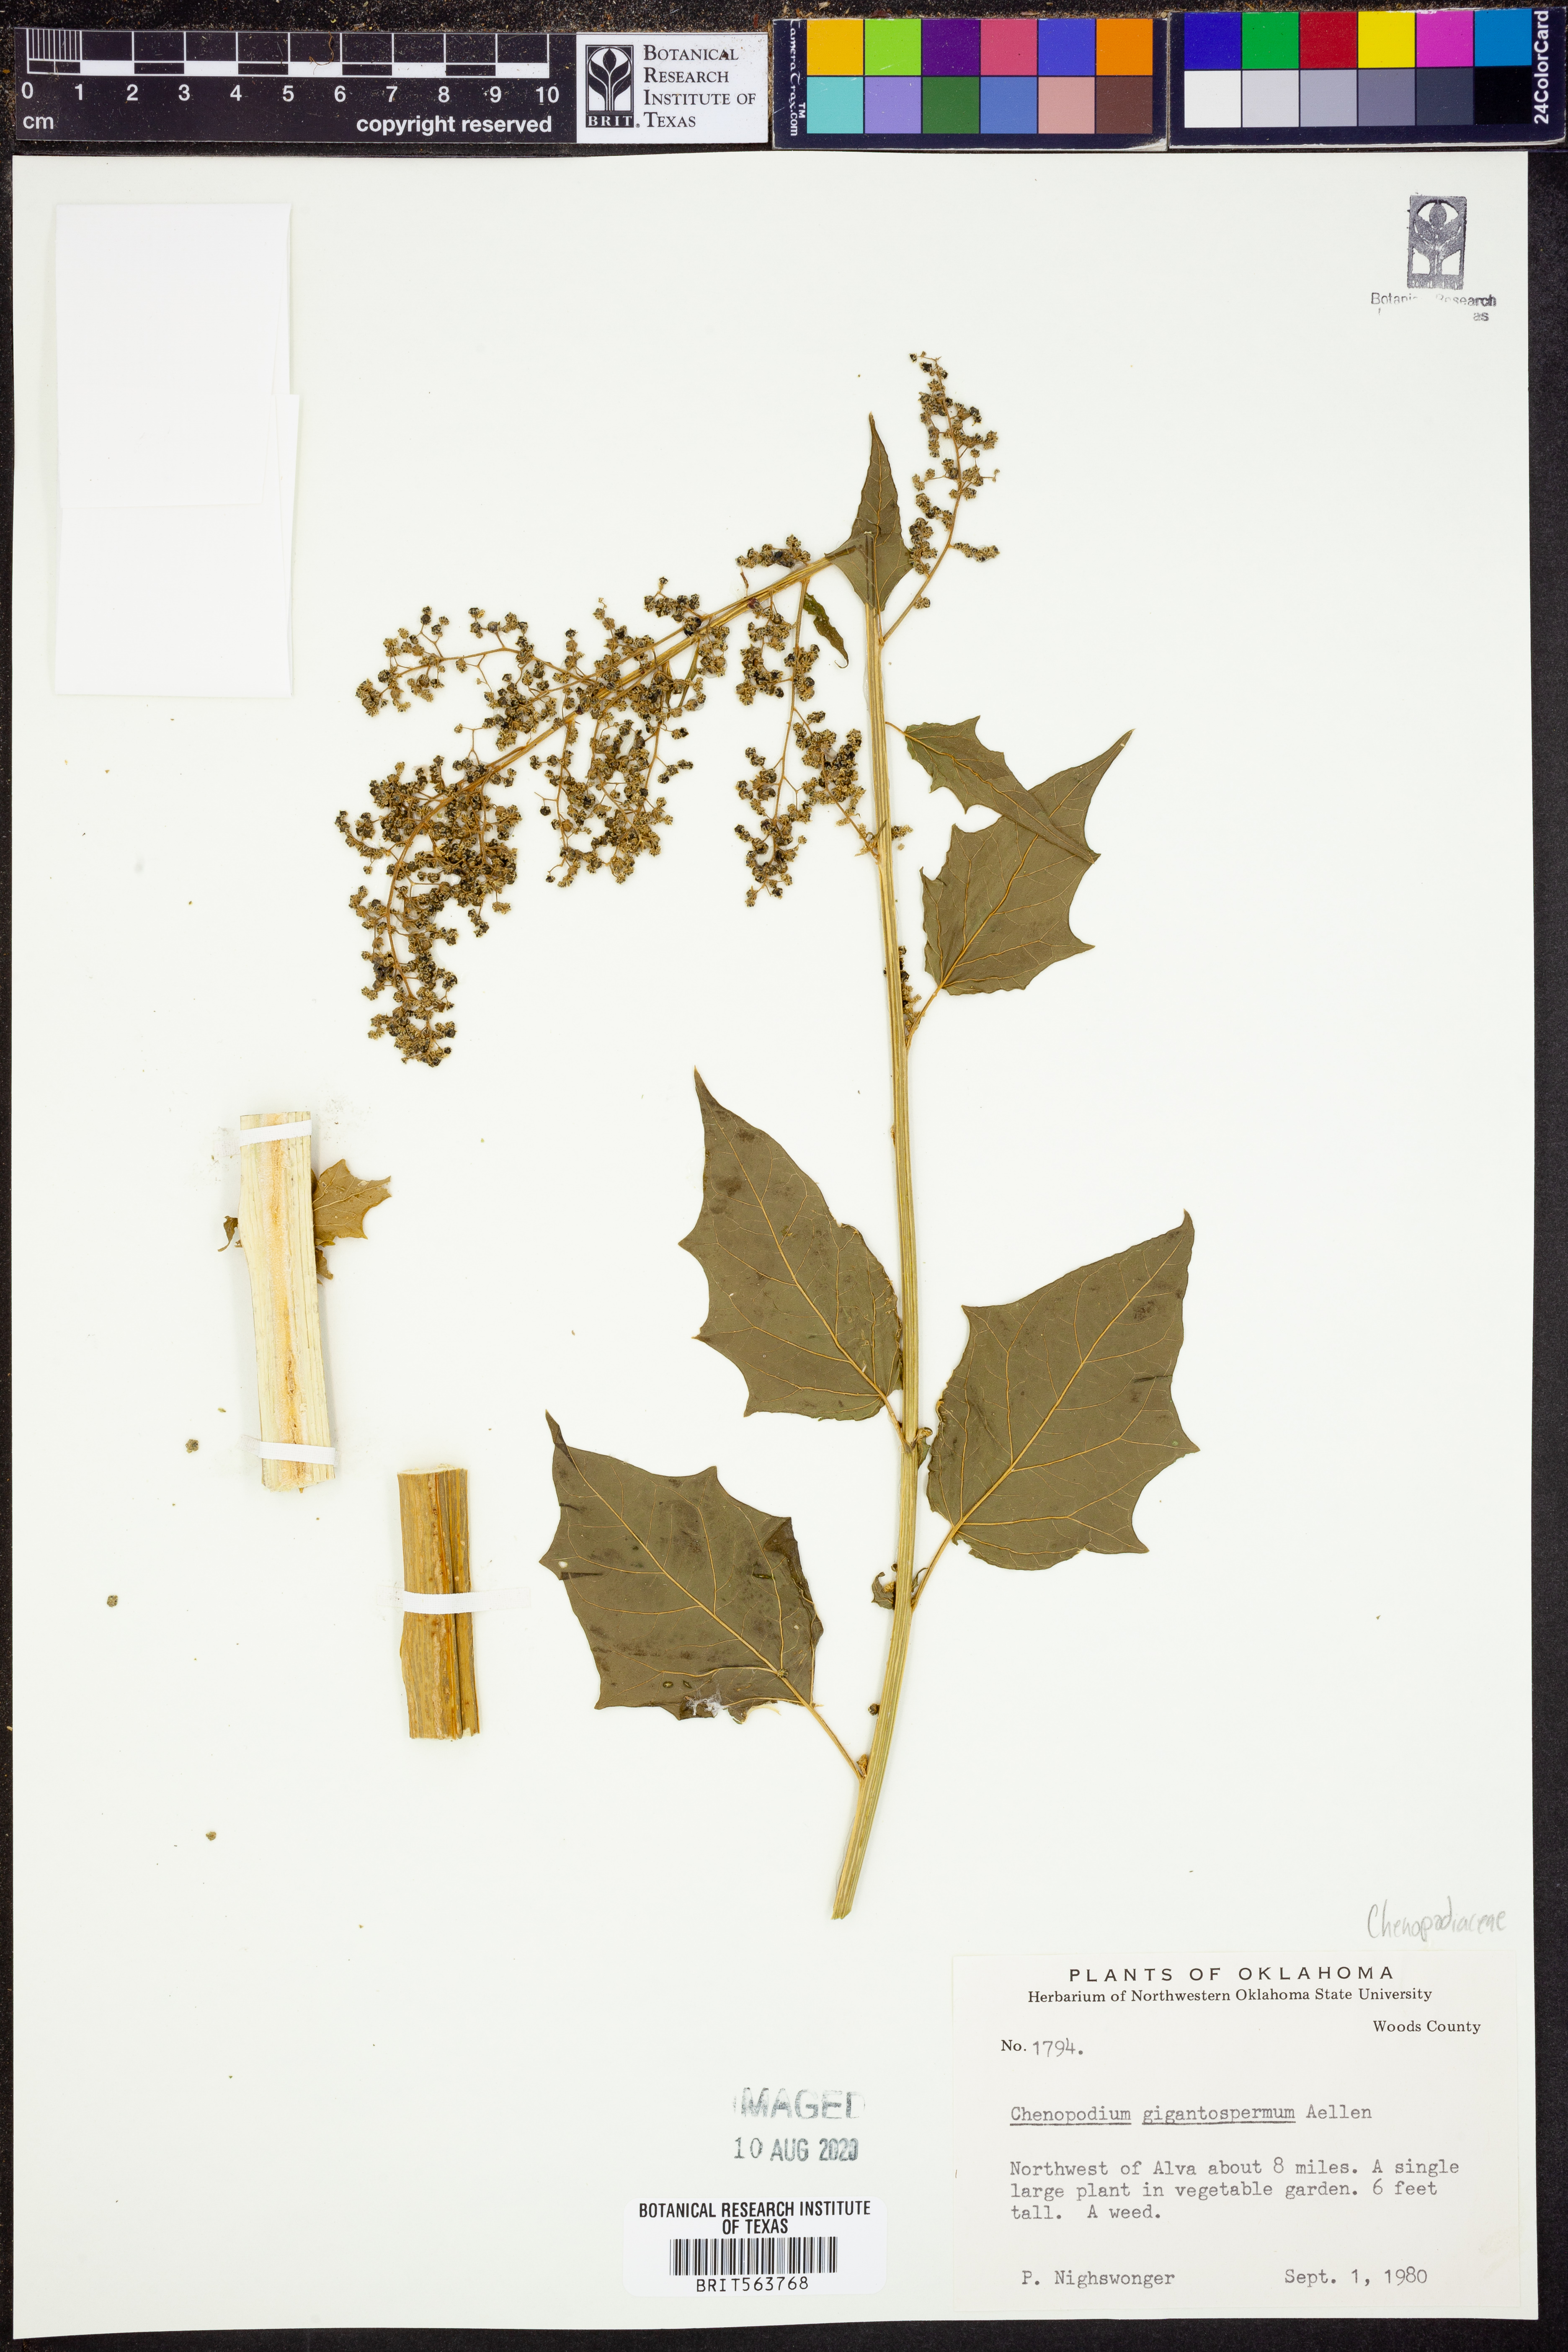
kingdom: Plantae
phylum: Tracheophyta
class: Magnoliopsida
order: Caryophyllales
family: Amaranthaceae
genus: Chenopodiastrum
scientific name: Chenopodiastrum simplex
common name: Large-seed goosefoot
